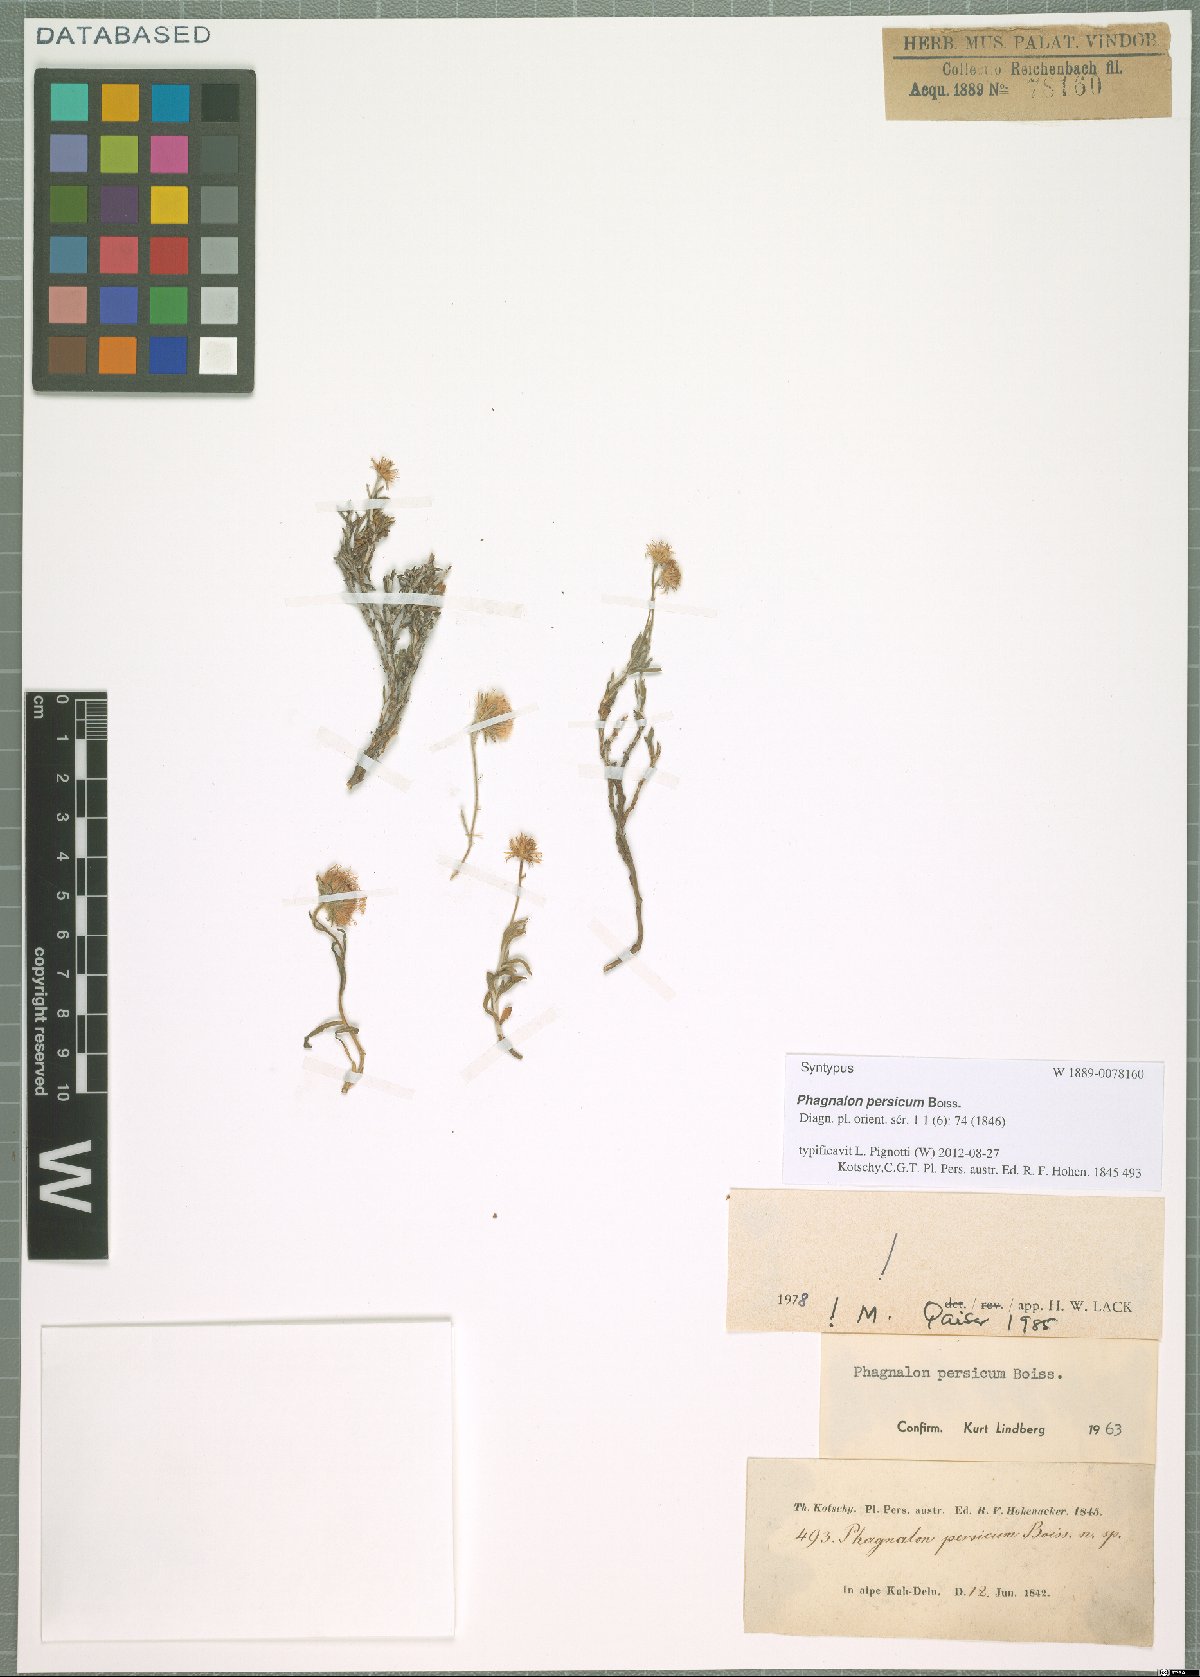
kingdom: Plantae
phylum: Tracheophyta
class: Magnoliopsida
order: Asterales
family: Asteraceae
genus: Phagnalon
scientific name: Phagnalon persicum
